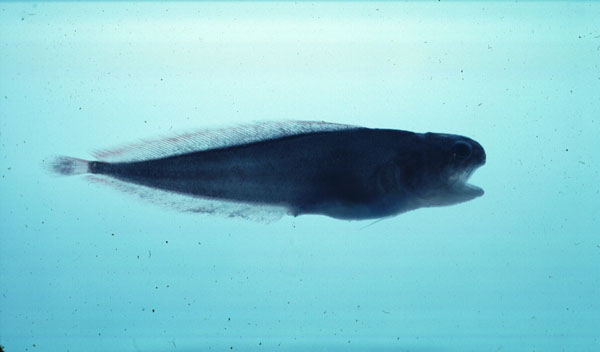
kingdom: Animalia
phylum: Chordata
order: Ophidiiformes
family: Bythitidae
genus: Dinematichthys
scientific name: Dinematichthys iluocoeteoides
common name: Small eye brotula
